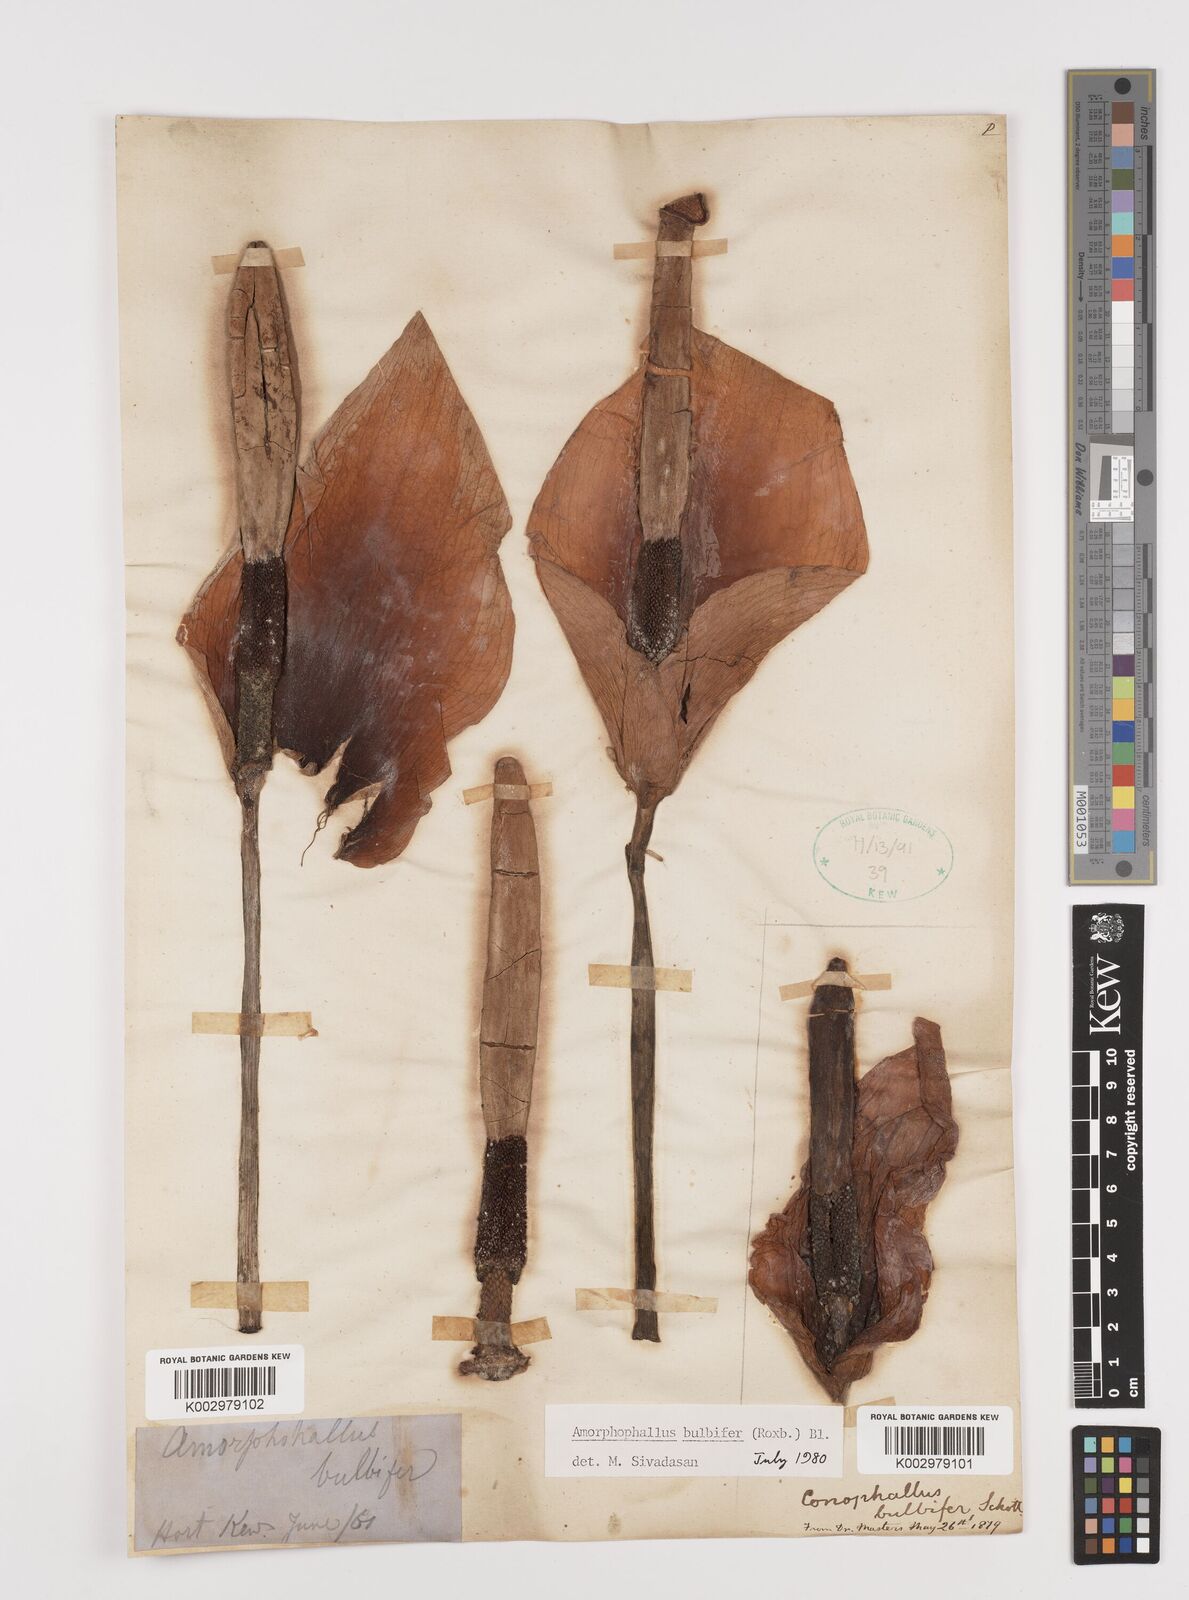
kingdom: Plantae
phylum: Tracheophyta
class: Liliopsida
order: Alismatales
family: Araceae
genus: Amorphophallus
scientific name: Amorphophallus bulbifer
